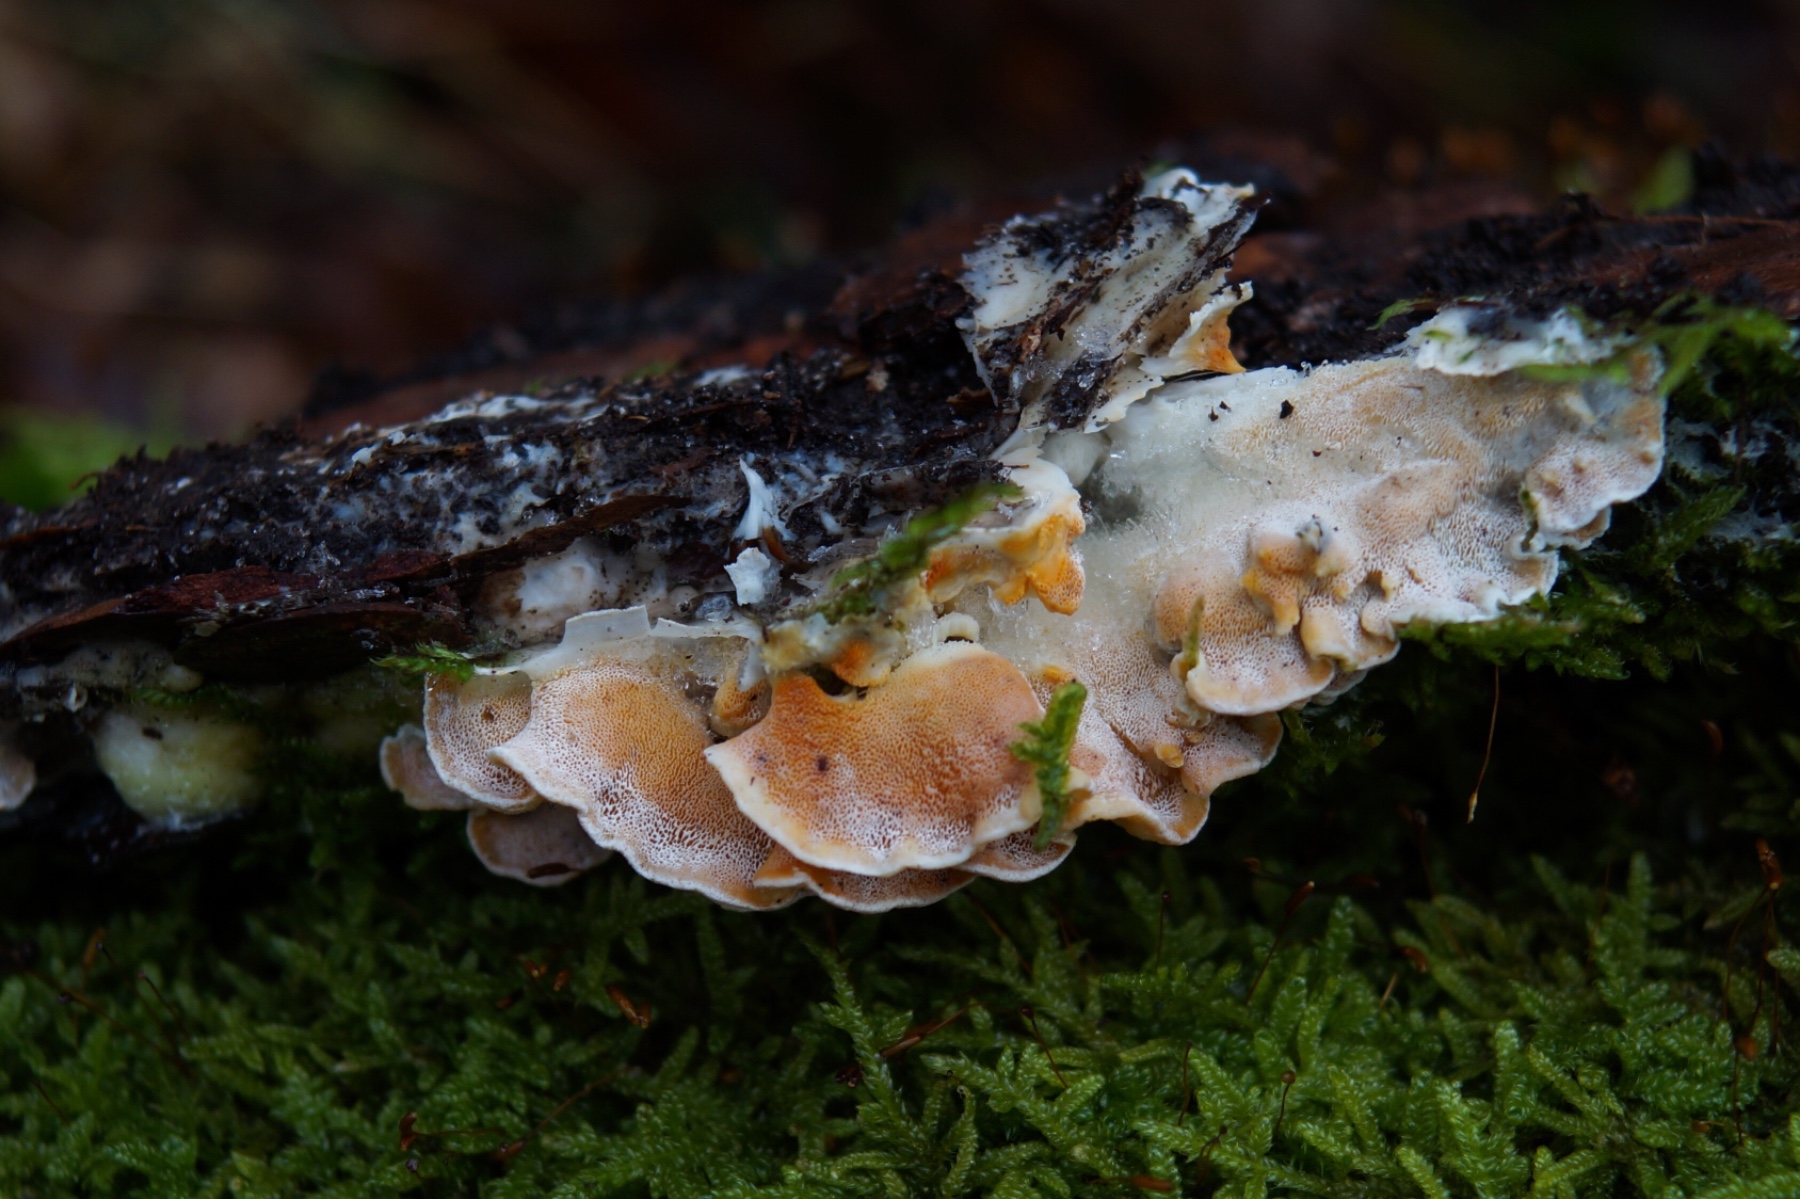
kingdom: Fungi
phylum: Basidiomycota
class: Agaricomycetes
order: Polyporales
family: Incrustoporiaceae
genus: Skeletocutis
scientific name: Skeletocutis amorpha
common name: orange krystalporesvamp
